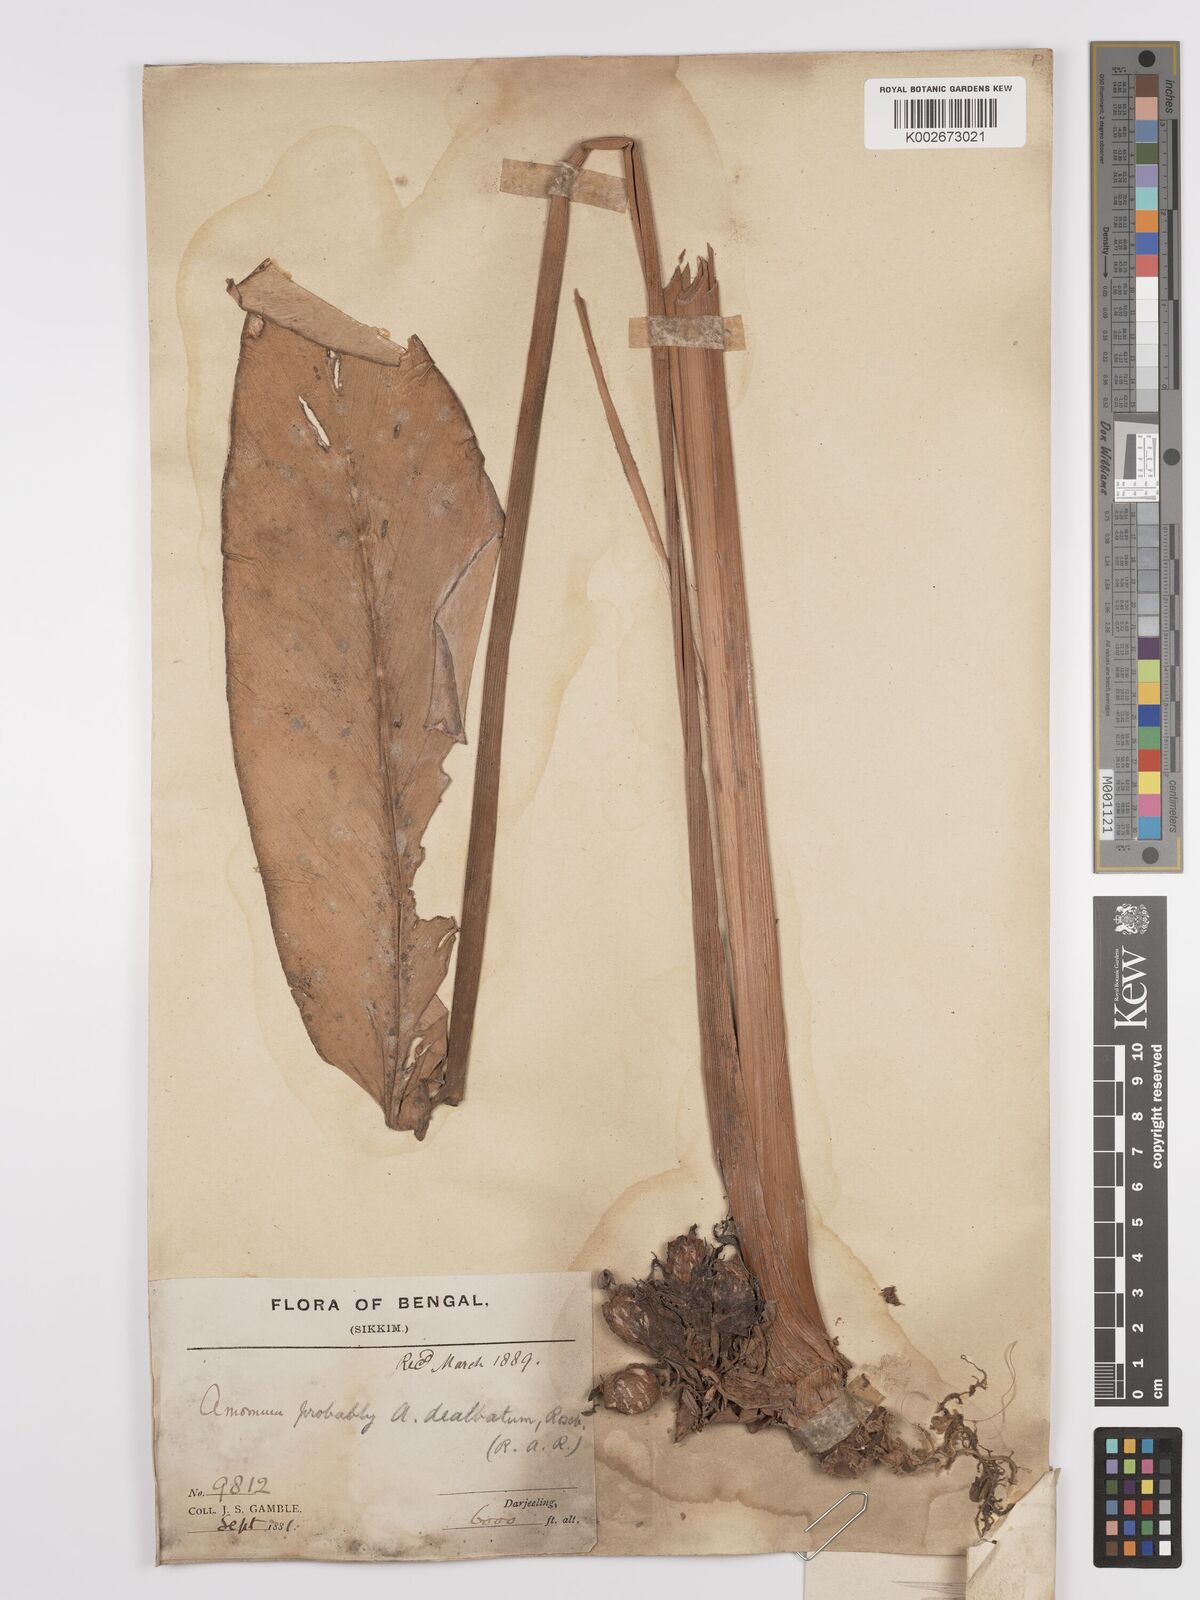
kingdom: Plantae
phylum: Tracheophyta
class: Liliopsida
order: Zingiberales
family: Zingiberaceae
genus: Amomum
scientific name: Amomum dealbatum
